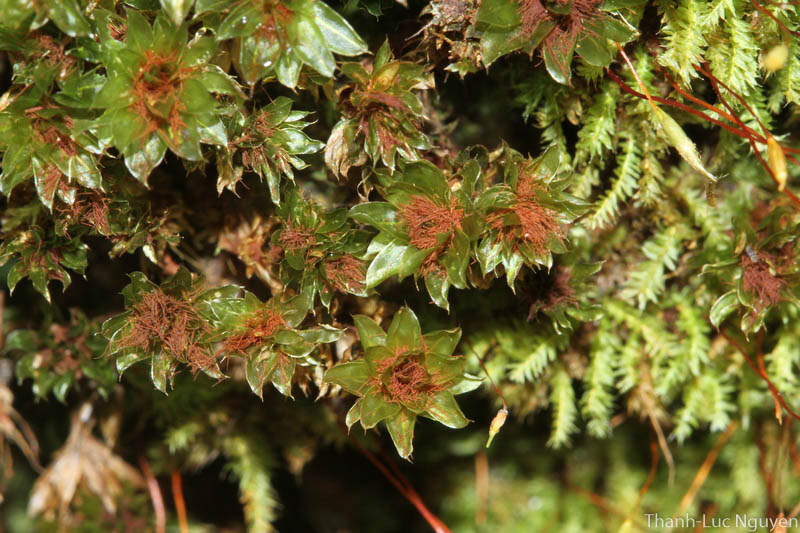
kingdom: Plantae
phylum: Bryophyta
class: Bryopsida
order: Bryales
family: Bryaceae
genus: Rosulabryum
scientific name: Rosulabryum
